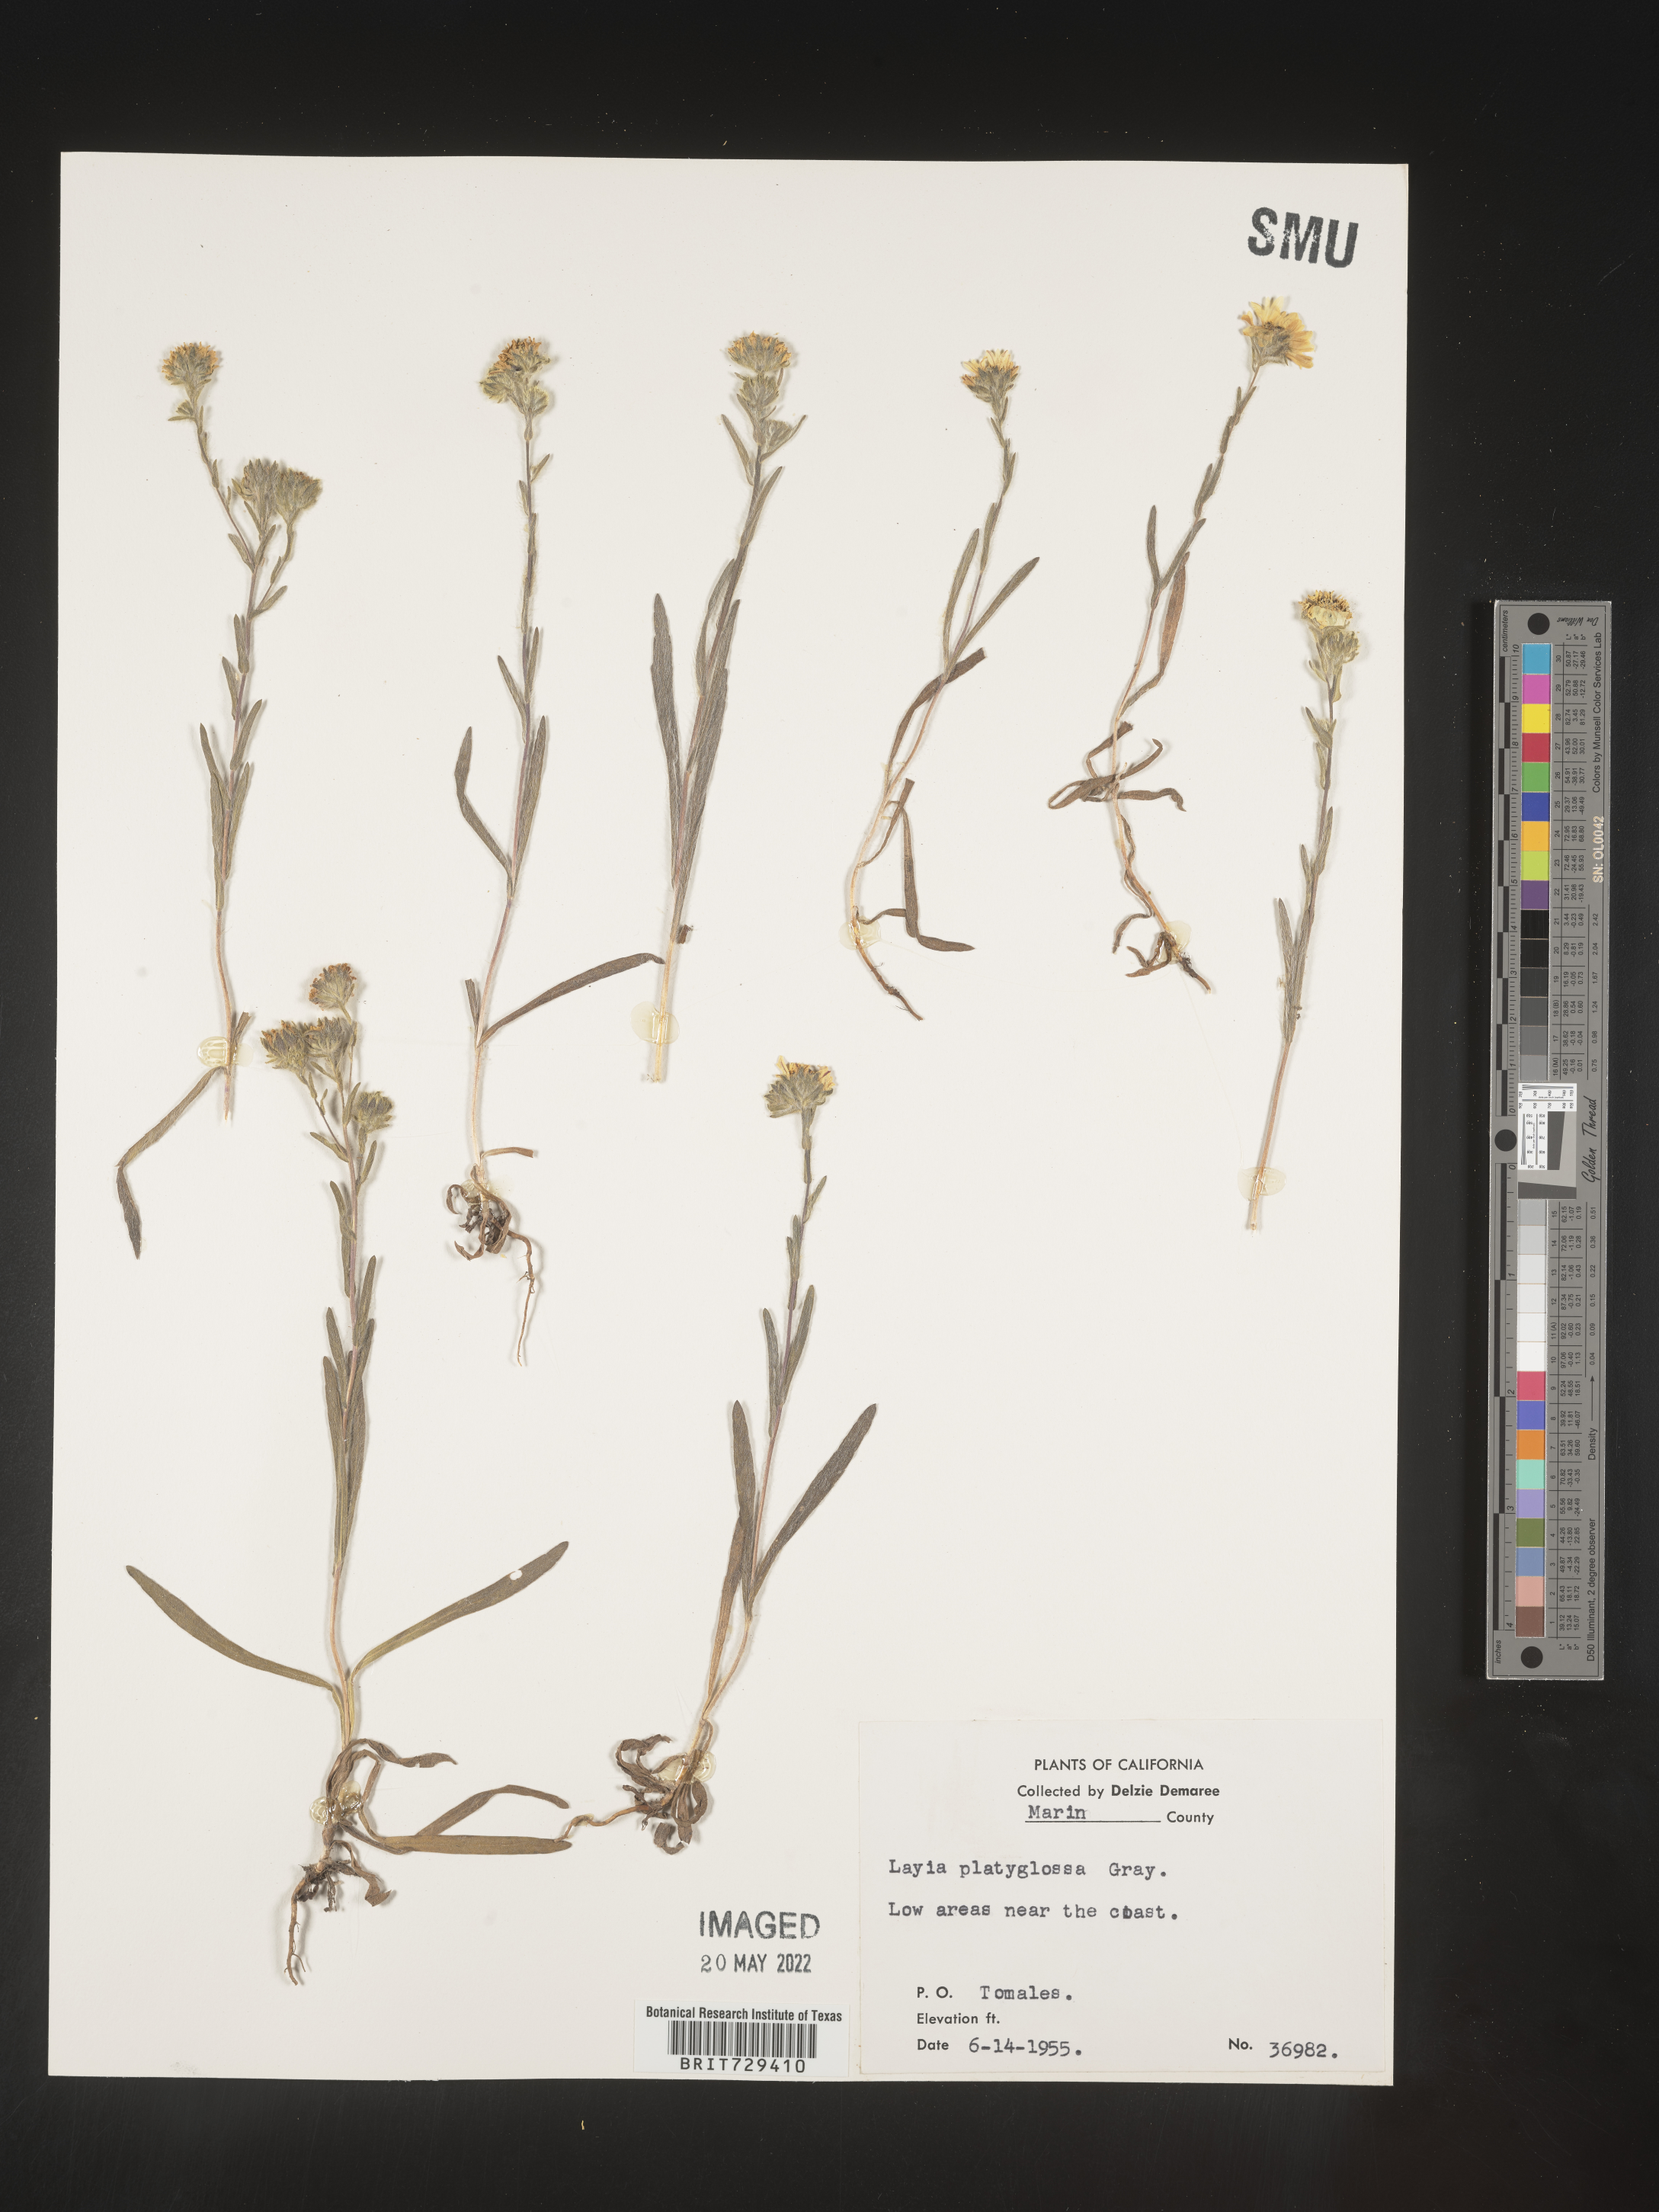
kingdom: Plantae
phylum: Tracheophyta
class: Magnoliopsida
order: Asterales
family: Asteraceae
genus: Layia
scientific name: Layia
